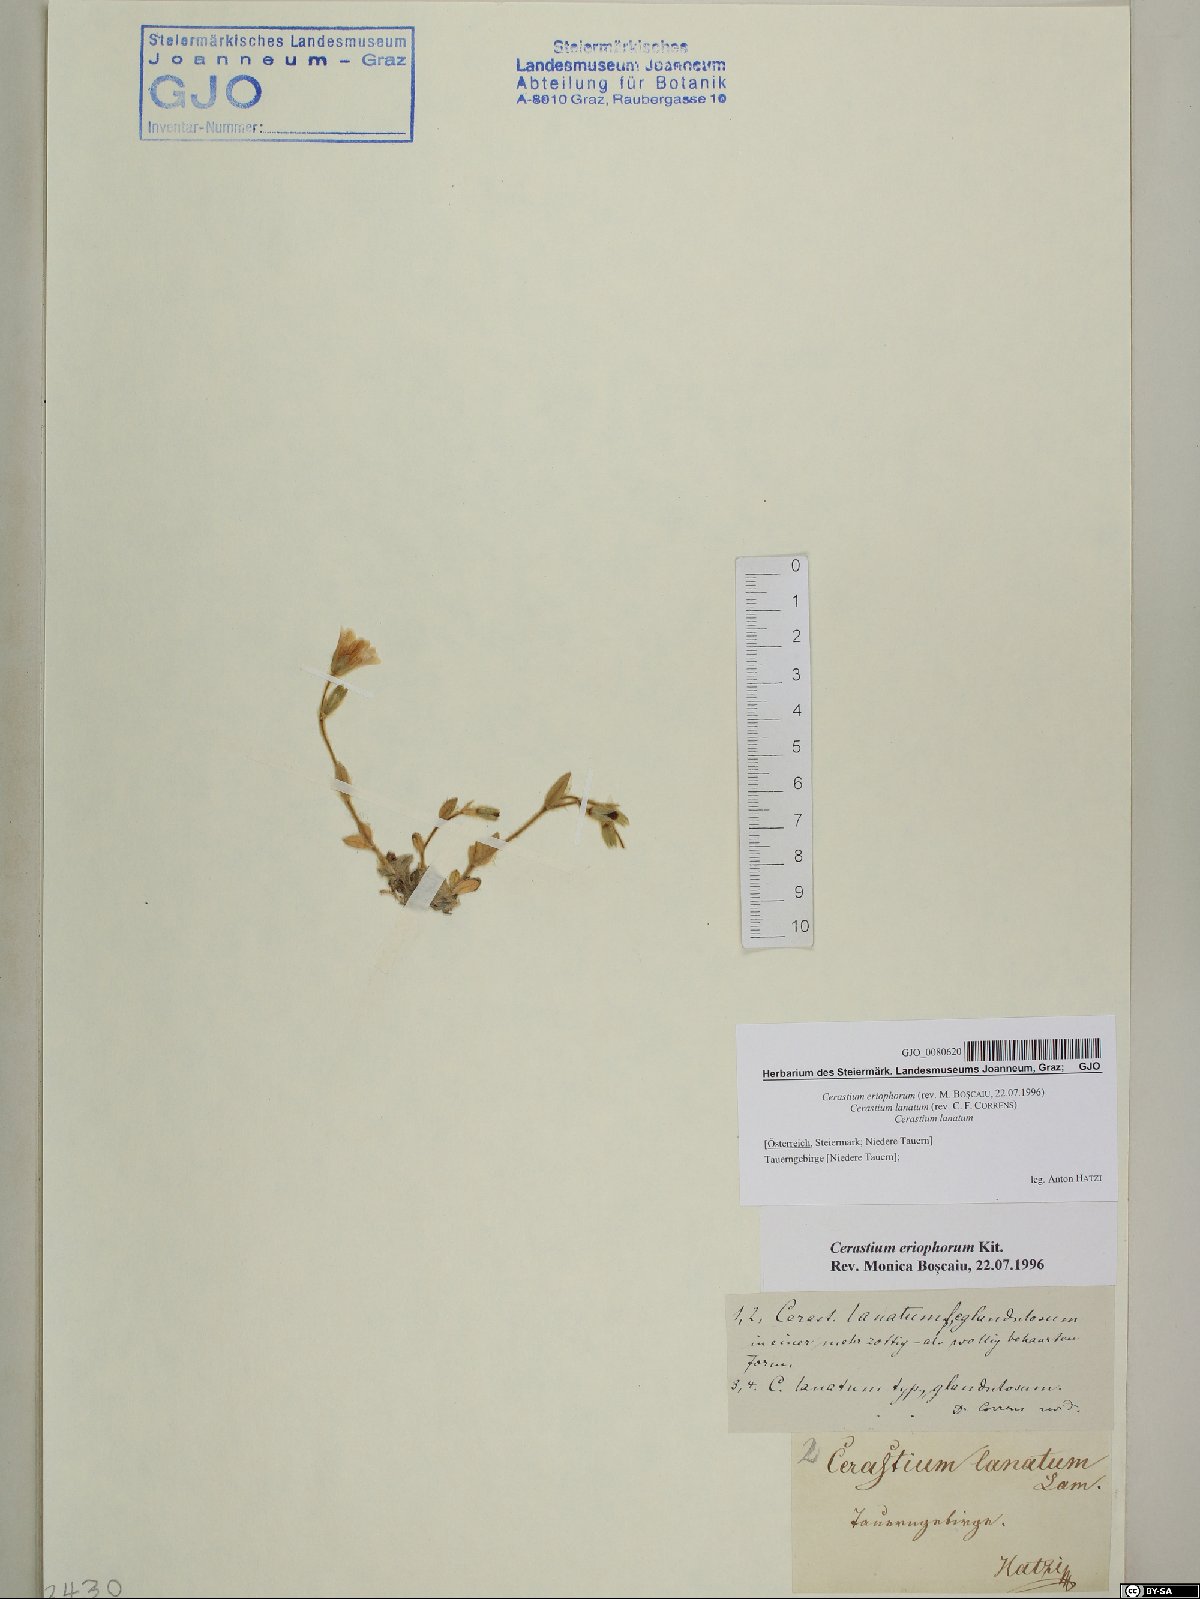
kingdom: Plantae
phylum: Tracheophyta
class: Magnoliopsida
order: Caryophyllales
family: Caryophyllaceae
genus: Cerastium
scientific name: Cerastium eriophorum
